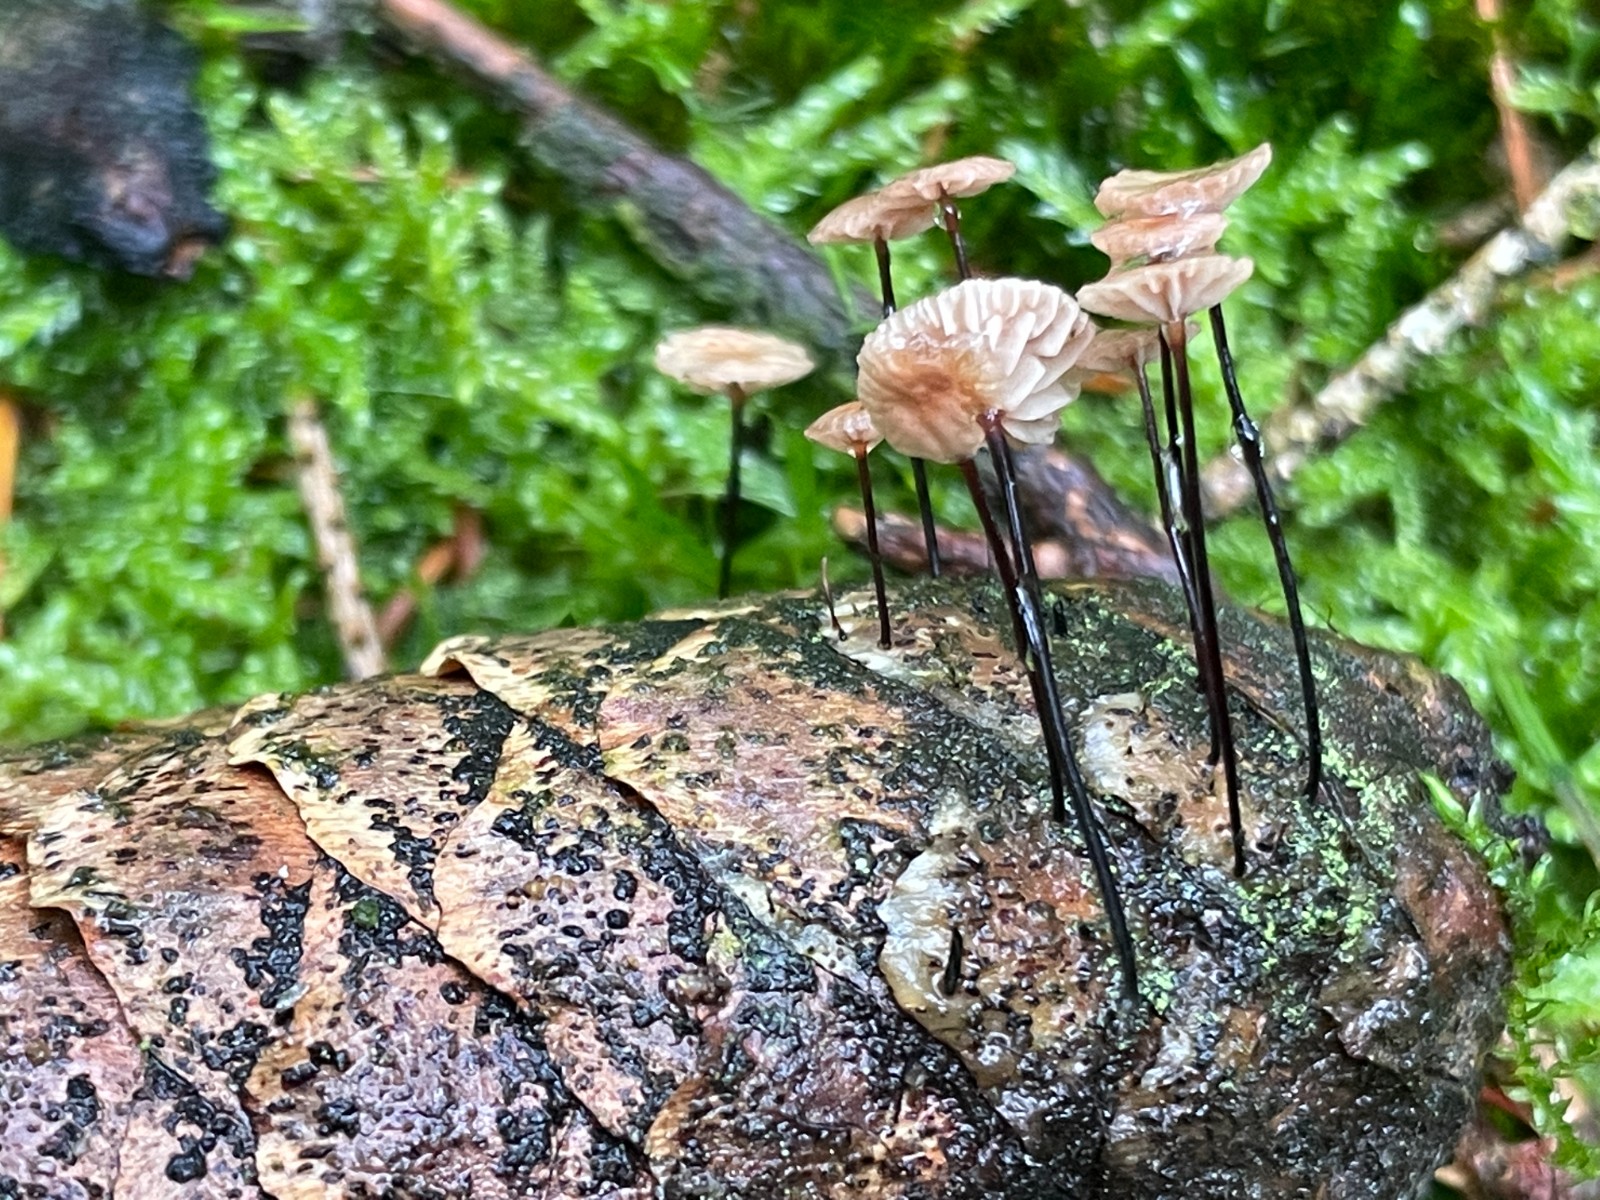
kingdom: Fungi
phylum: Basidiomycota
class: Agaricomycetes
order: Agaricales
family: Omphalotaceae
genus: Gymnopus
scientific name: Gymnopus androsaceus
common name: trådstokket fladhat
